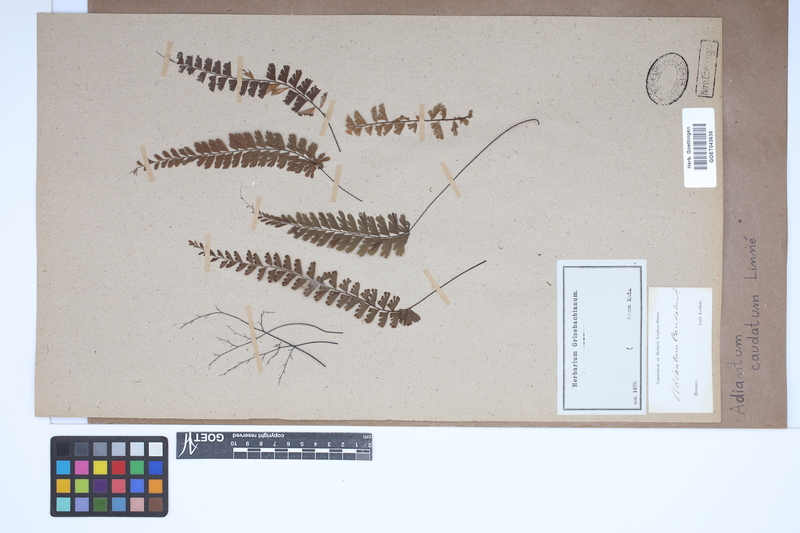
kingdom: Plantae
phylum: Tracheophyta
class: Polypodiopsida
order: Polypodiales
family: Pteridaceae
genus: Adiantum
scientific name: Adiantum caudatum
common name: Tailed maidenhair
